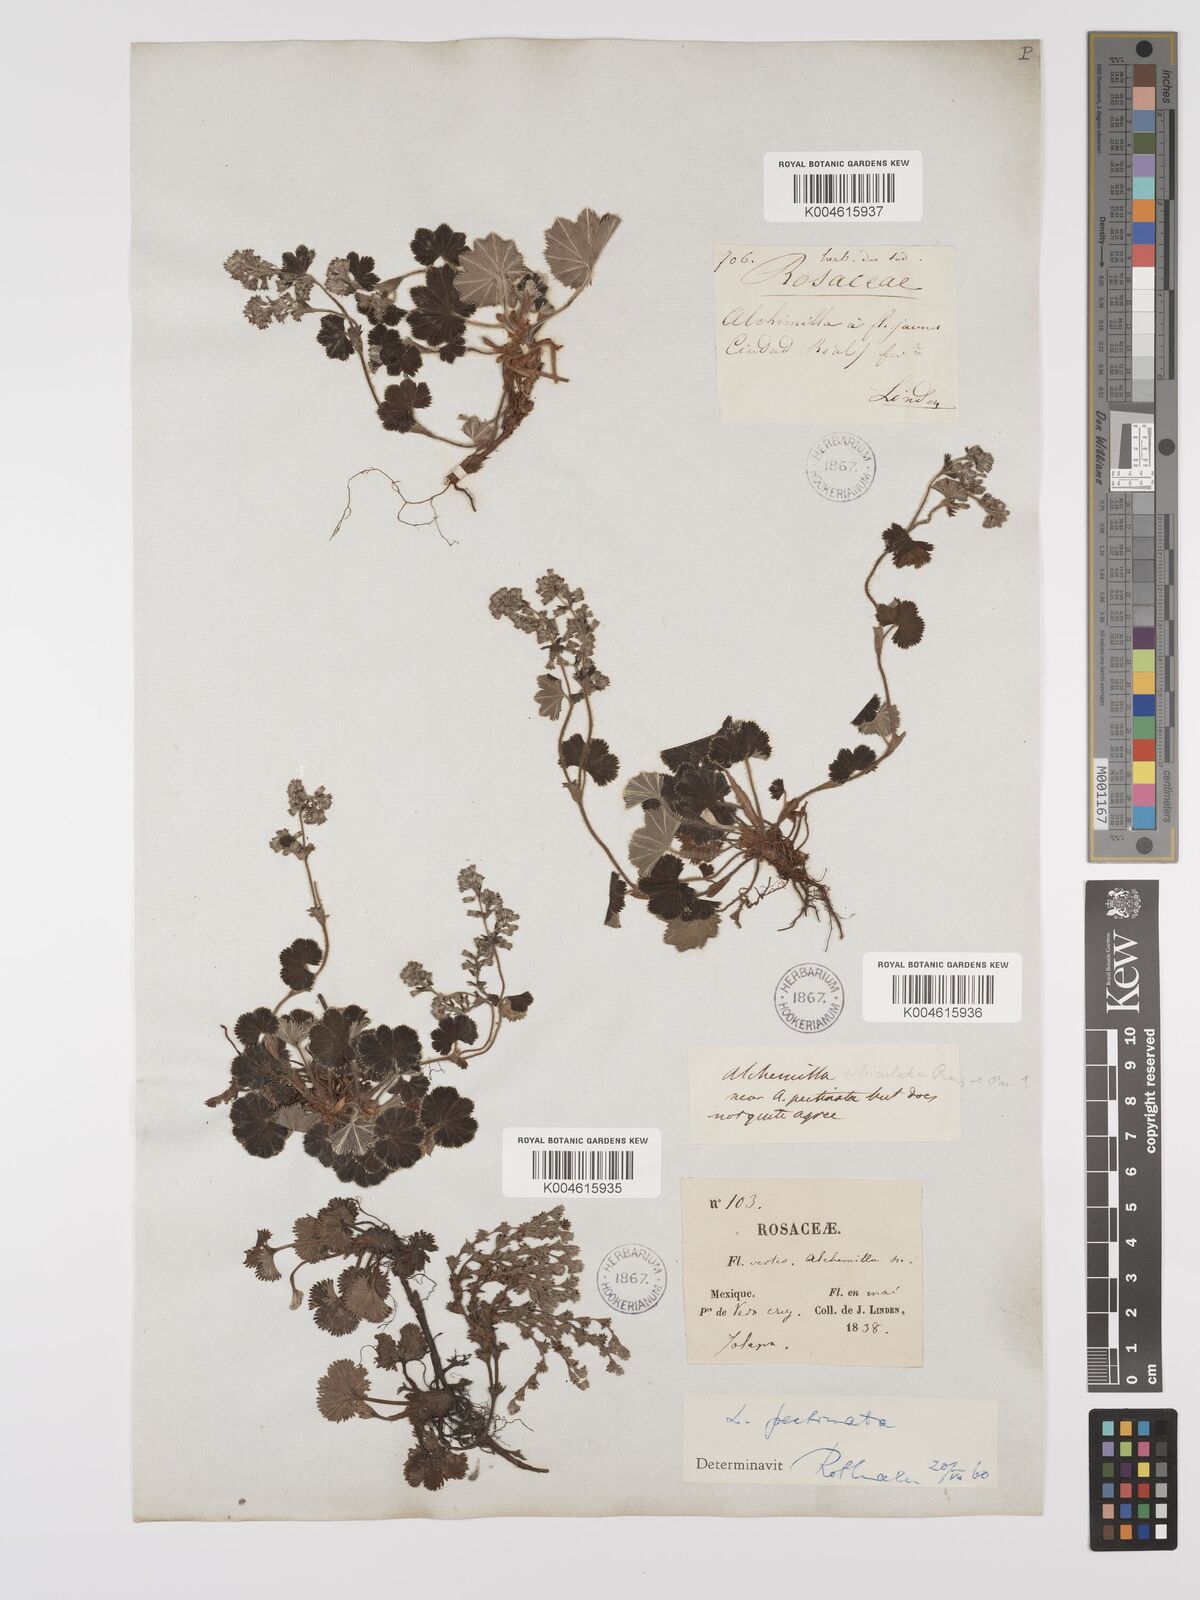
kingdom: Plantae
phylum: Tracheophyta
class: Magnoliopsida
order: Rosales
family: Rosaceae
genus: Lachemilla
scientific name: Lachemilla pectinata
